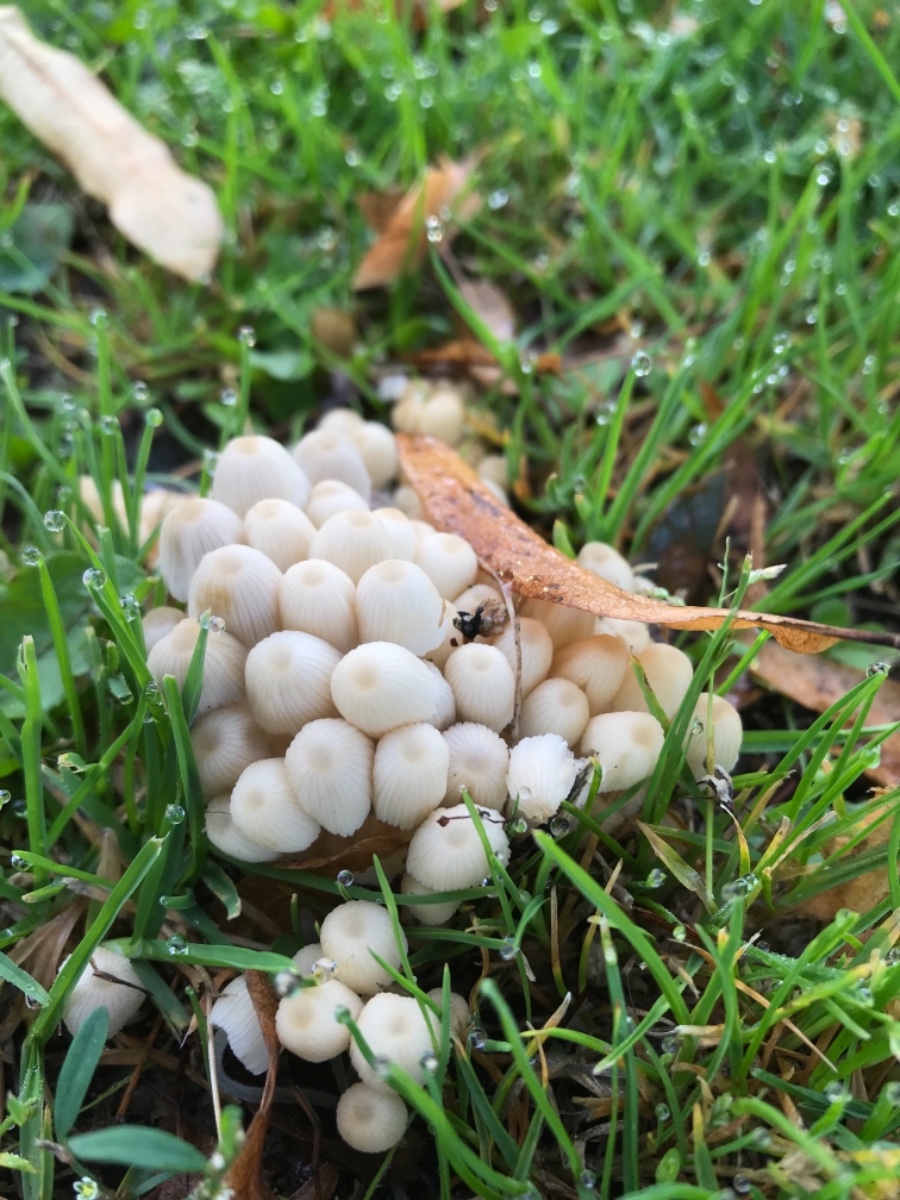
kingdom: Fungi
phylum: Basidiomycota
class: Agaricomycetes
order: Agaricales
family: Psathyrellaceae
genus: Coprinellus
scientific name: Coprinellus disseminatus
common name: bredsået blækhat
